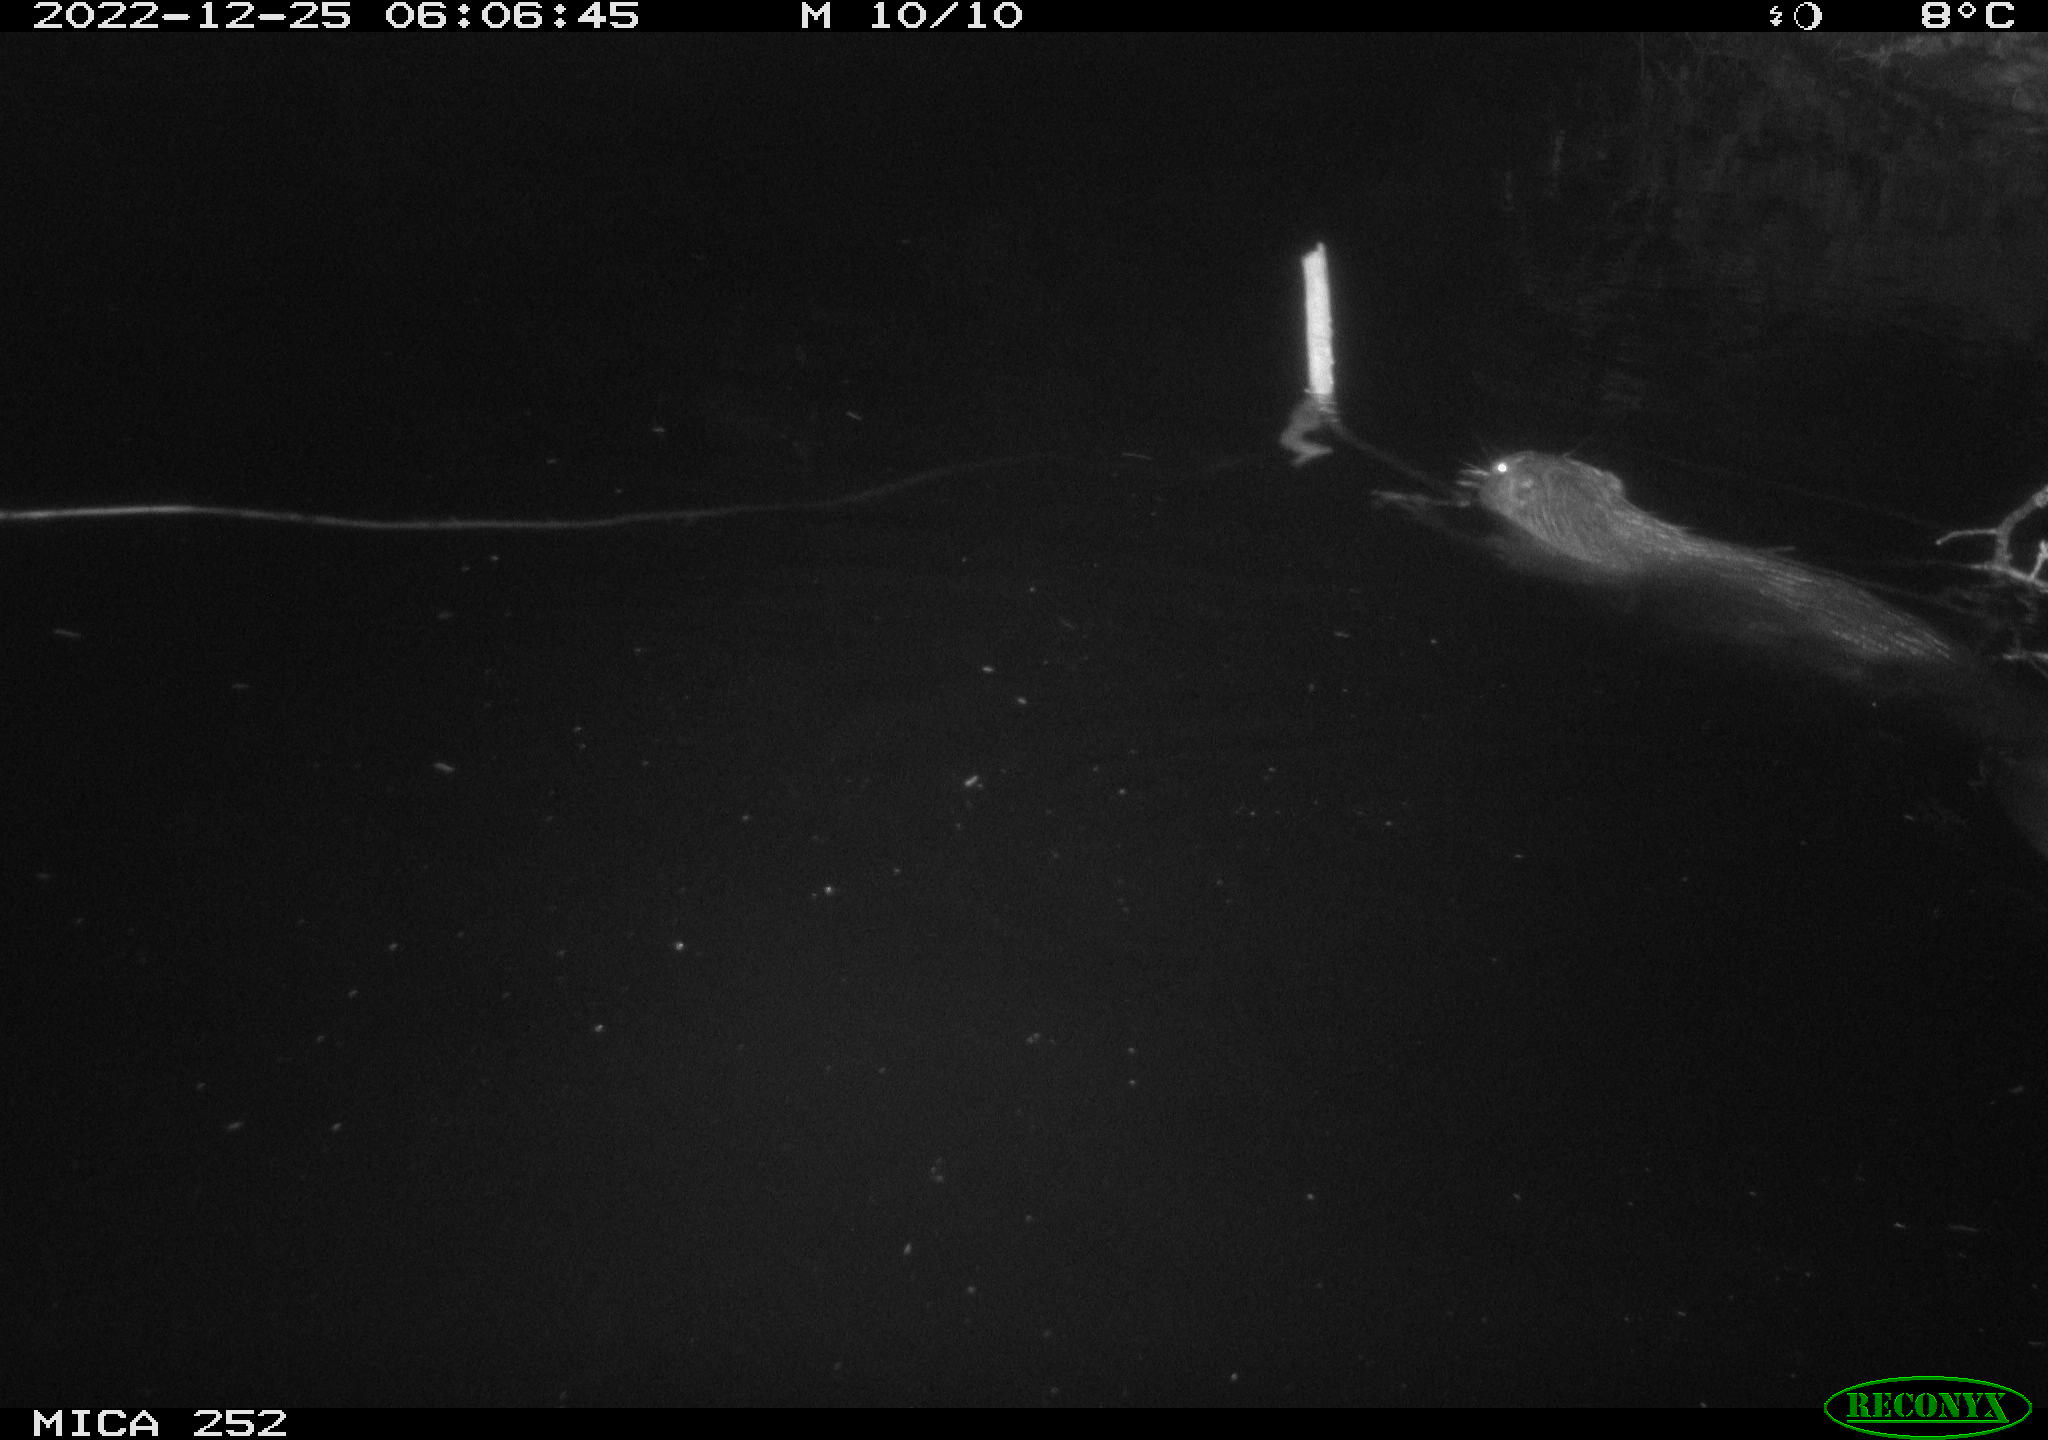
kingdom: Animalia
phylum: Chordata
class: Mammalia
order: Rodentia
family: Castoridae
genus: Castor
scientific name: Castor fiber
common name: Eurasian beaver
